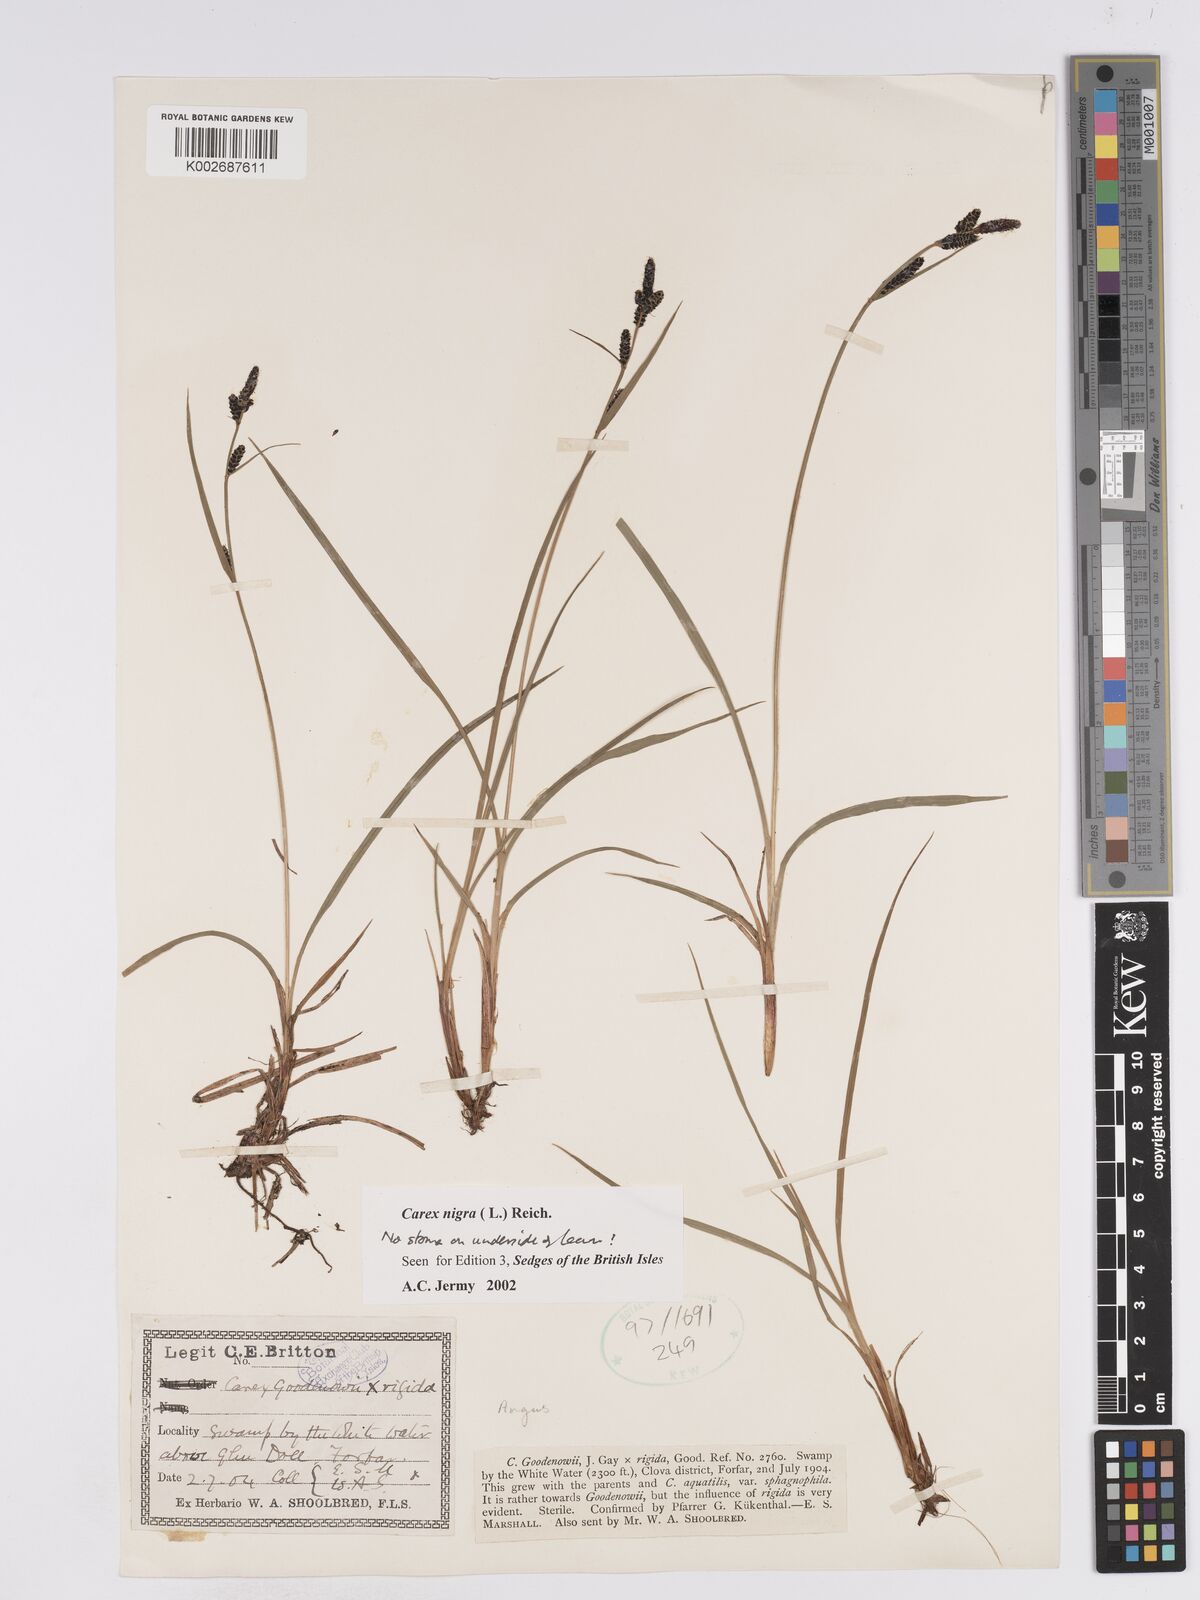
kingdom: Plantae
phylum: Tracheophyta
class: Liliopsida
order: Poales
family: Cyperaceae
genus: Carex
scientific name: Carex nigra
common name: Common sedge
